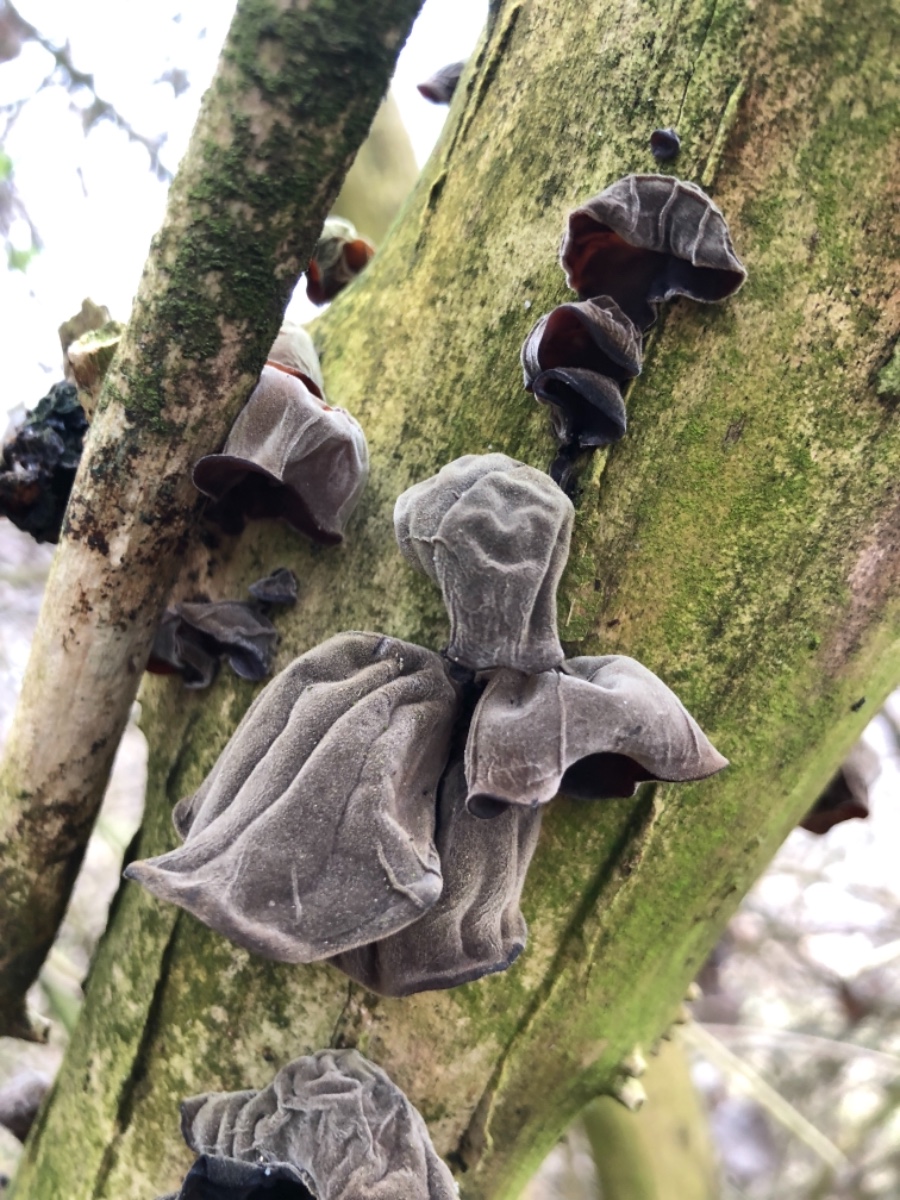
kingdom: Fungi
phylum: Basidiomycota
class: Agaricomycetes
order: Auriculariales
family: Auriculariaceae
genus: Auricularia
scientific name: Auricularia auricula-judae
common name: almindelig judasøre
